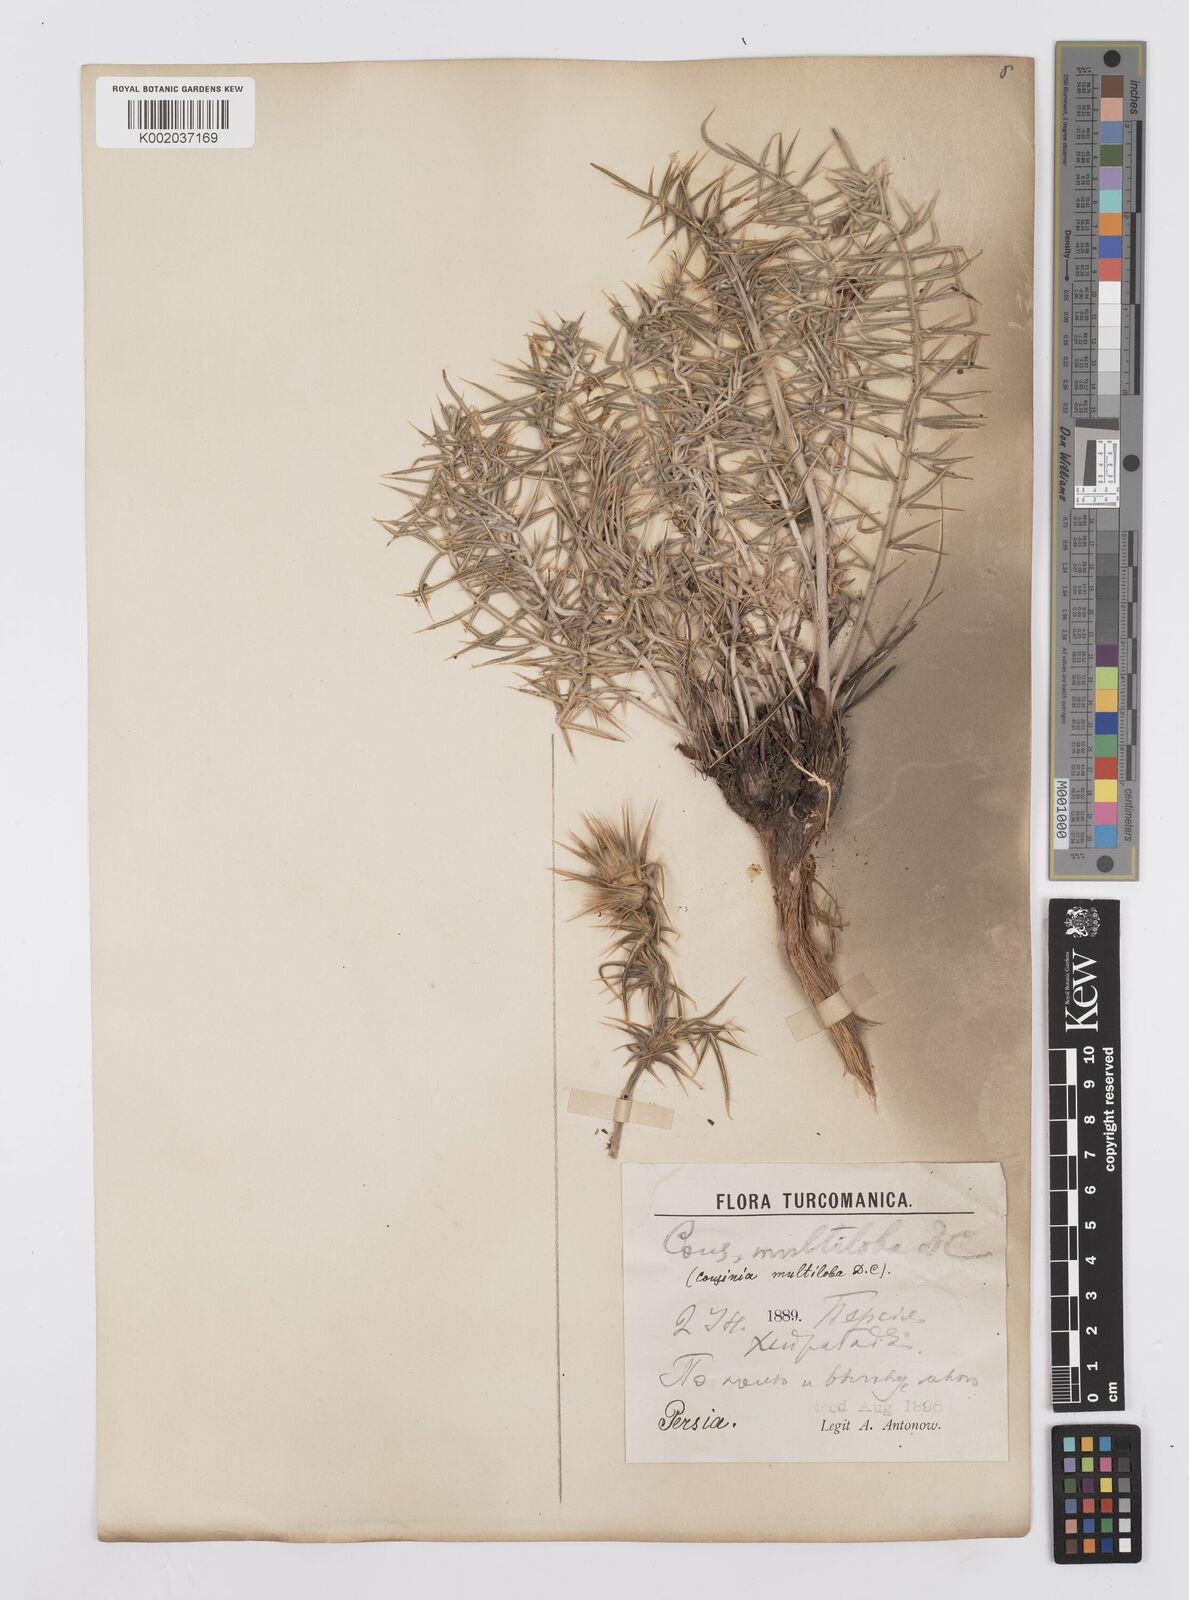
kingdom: Plantae
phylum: Tracheophyta
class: Magnoliopsida
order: Asterales
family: Asteraceae
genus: Cousinia
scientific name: Cousinia multiloba
